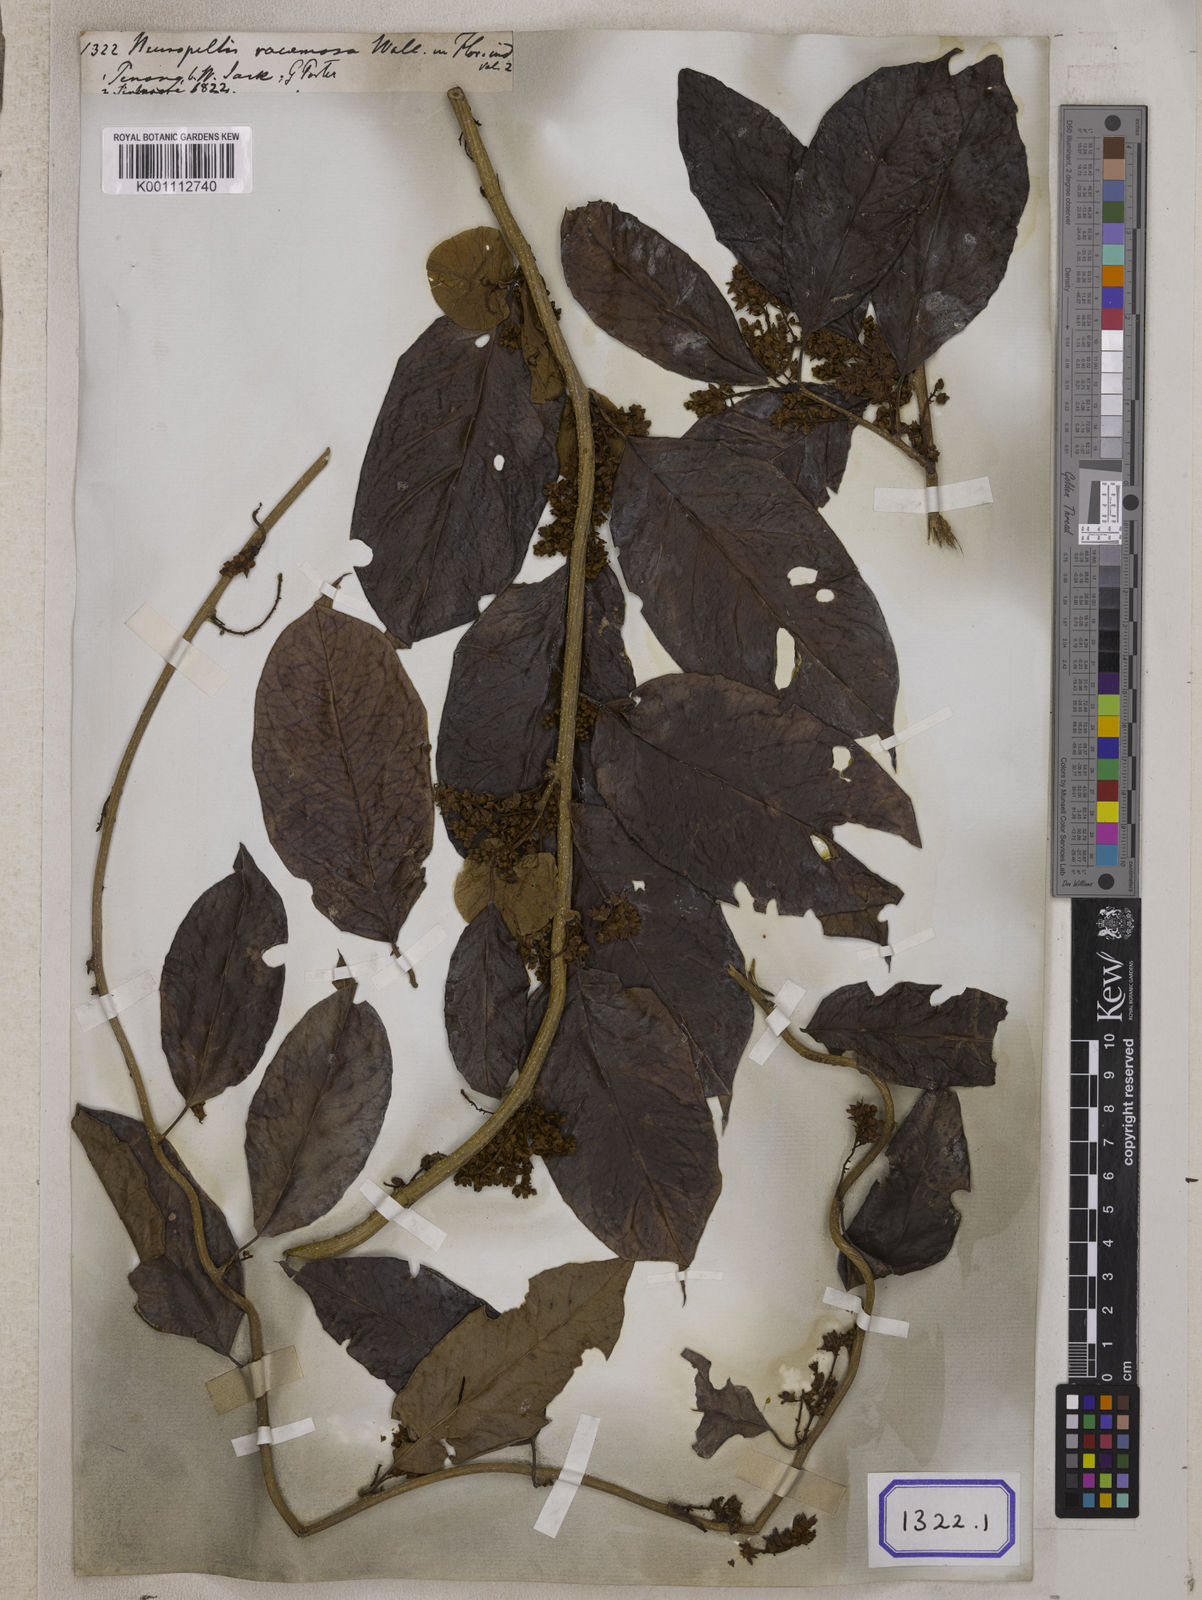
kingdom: Plantae
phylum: Tracheophyta
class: Magnoliopsida
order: Solanales
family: Convolvulaceae
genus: Neuropeltis
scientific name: Neuropeltis racemosa
